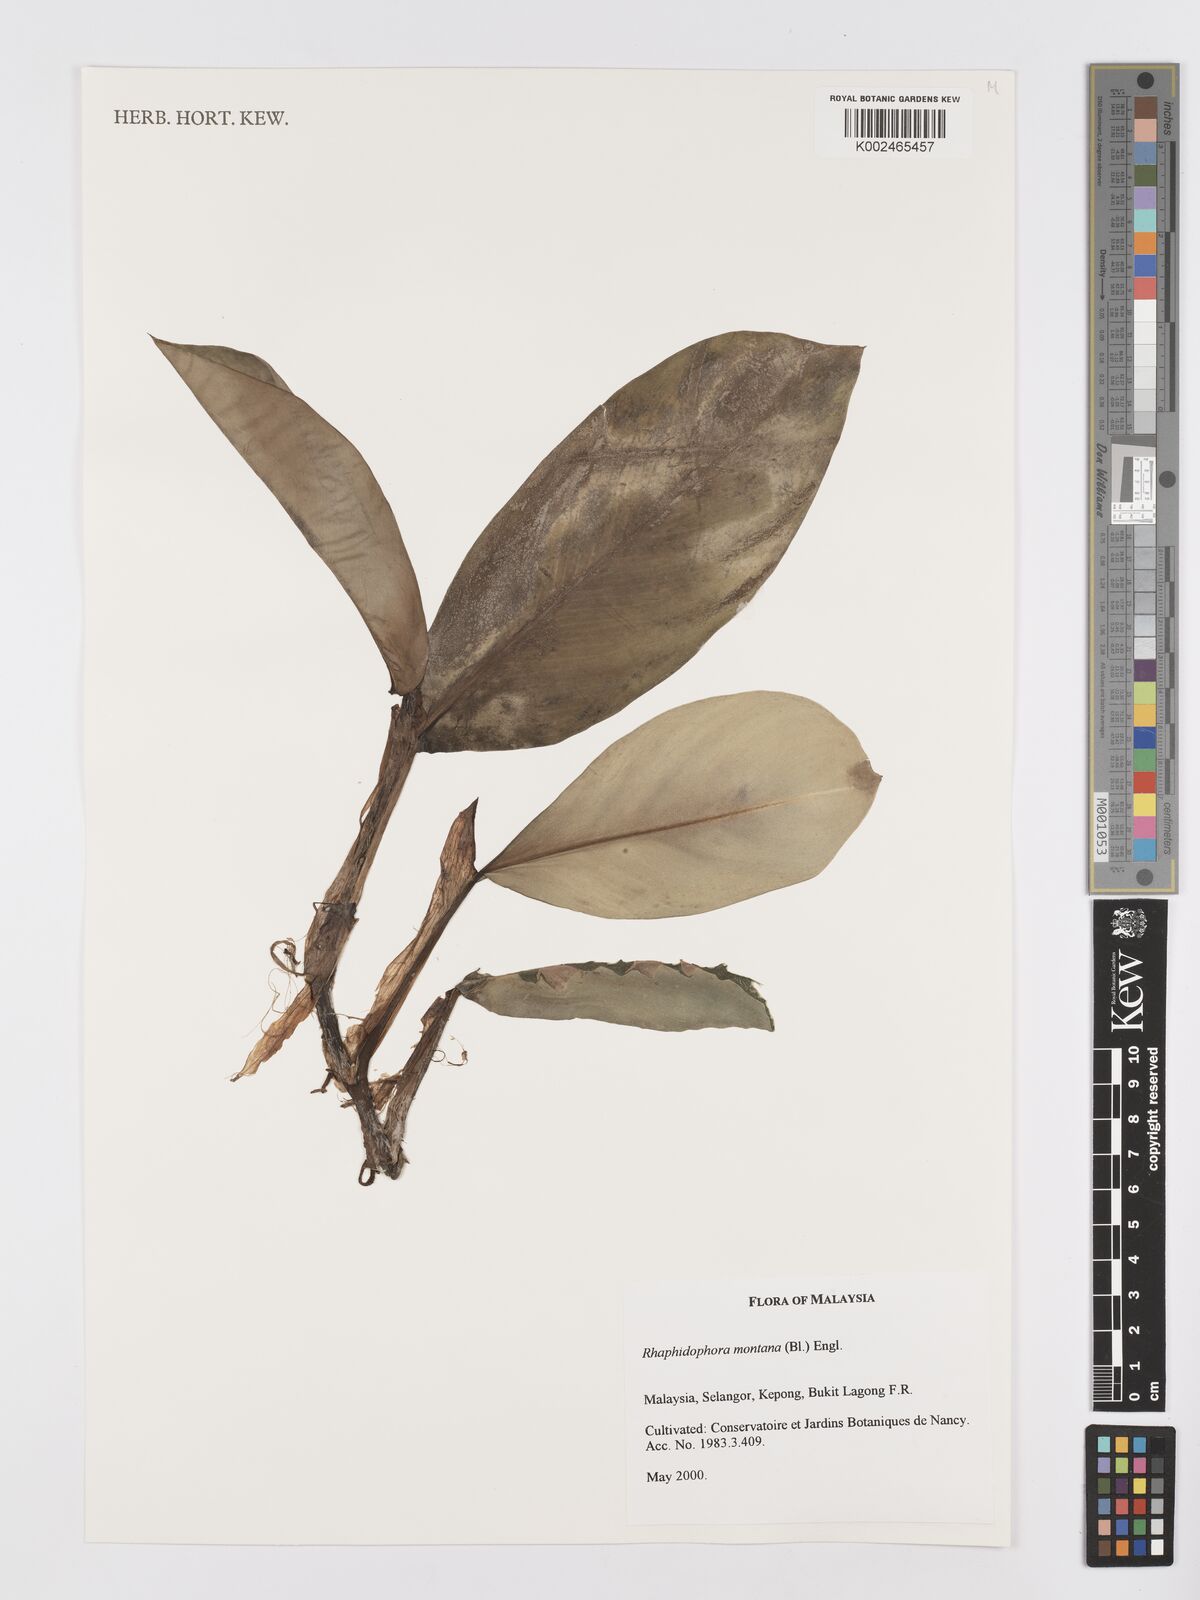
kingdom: Plantae
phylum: Tracheophyta
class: Liliopsida
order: Alismatales
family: Araceae
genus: Rhaphidophora
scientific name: Rhaphidophora montana
